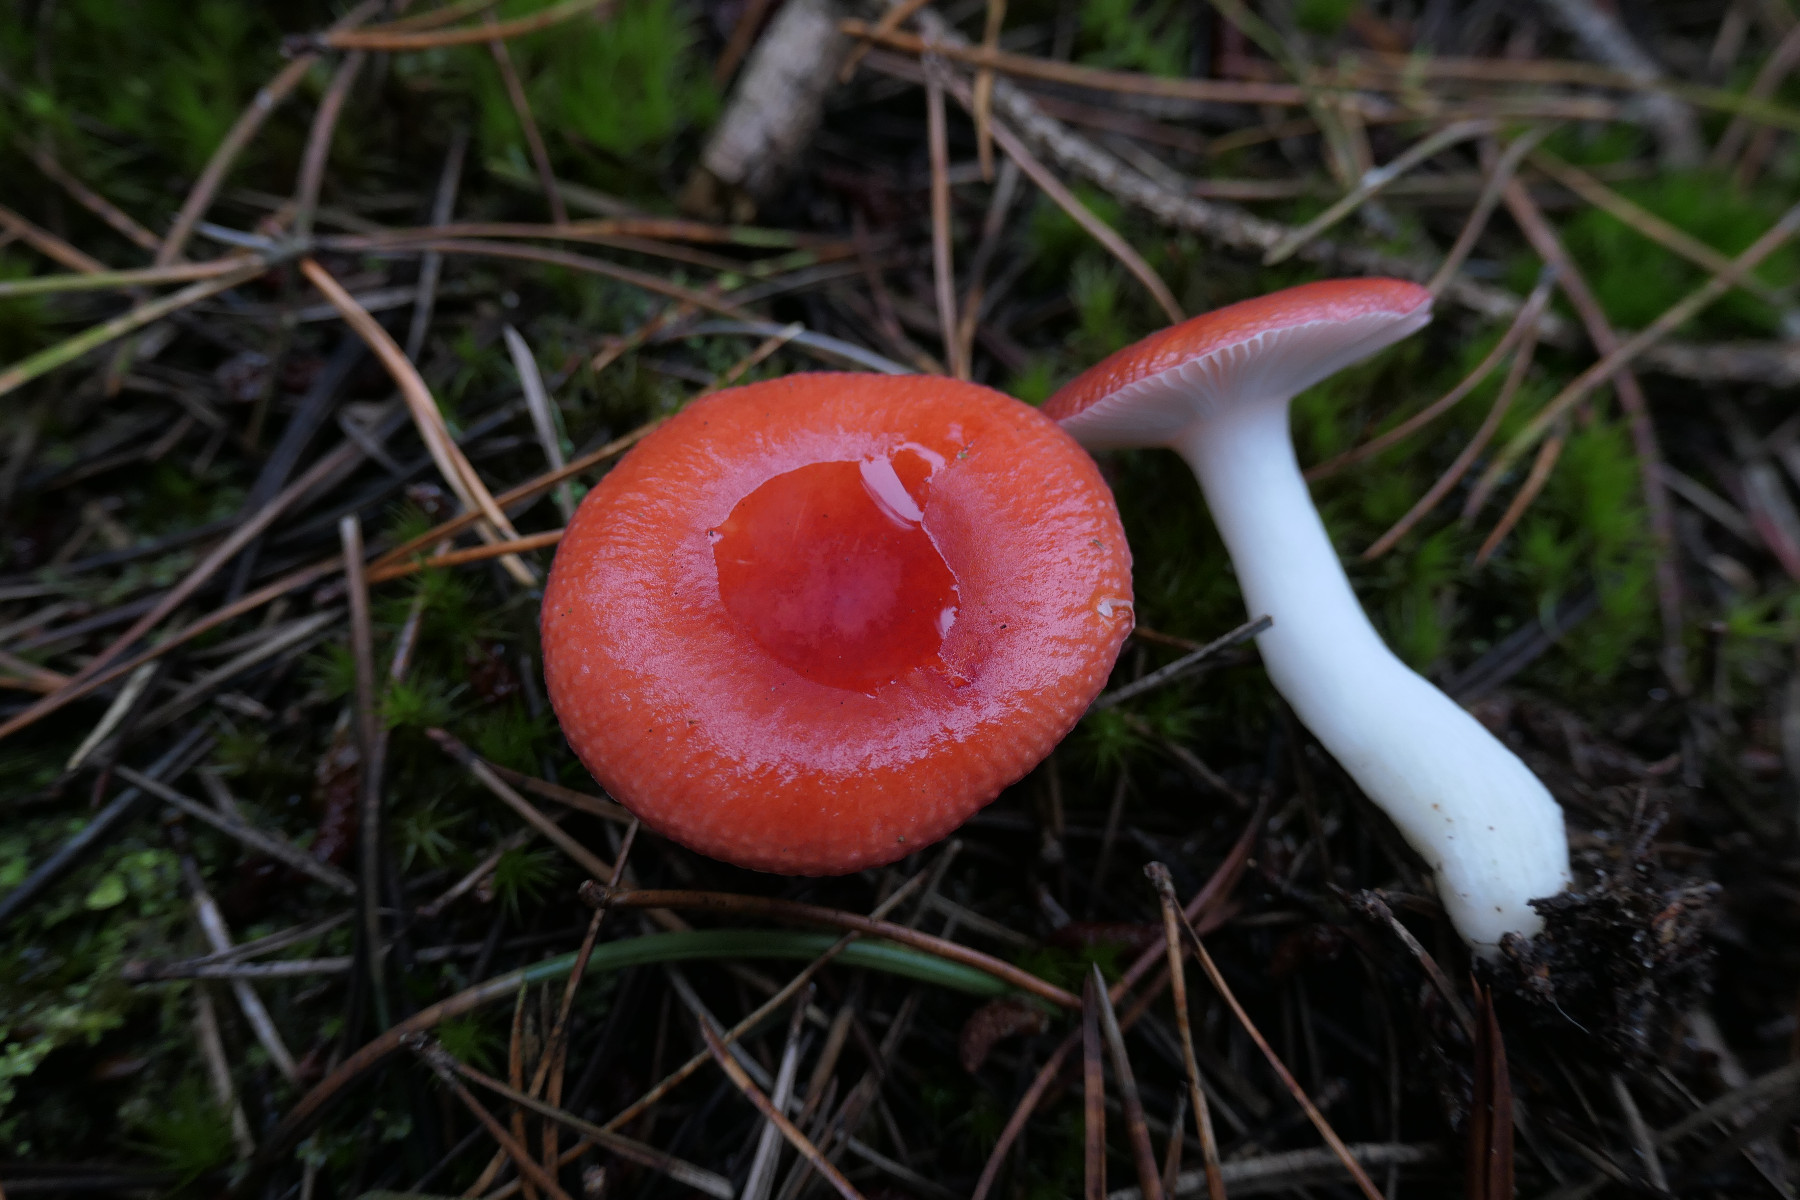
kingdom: Fungi
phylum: Basidiomycota
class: Agaricomycetes
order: Russulales
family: Russulaceae
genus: Russula
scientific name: Russula emetica
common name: stor gift-skørhat
